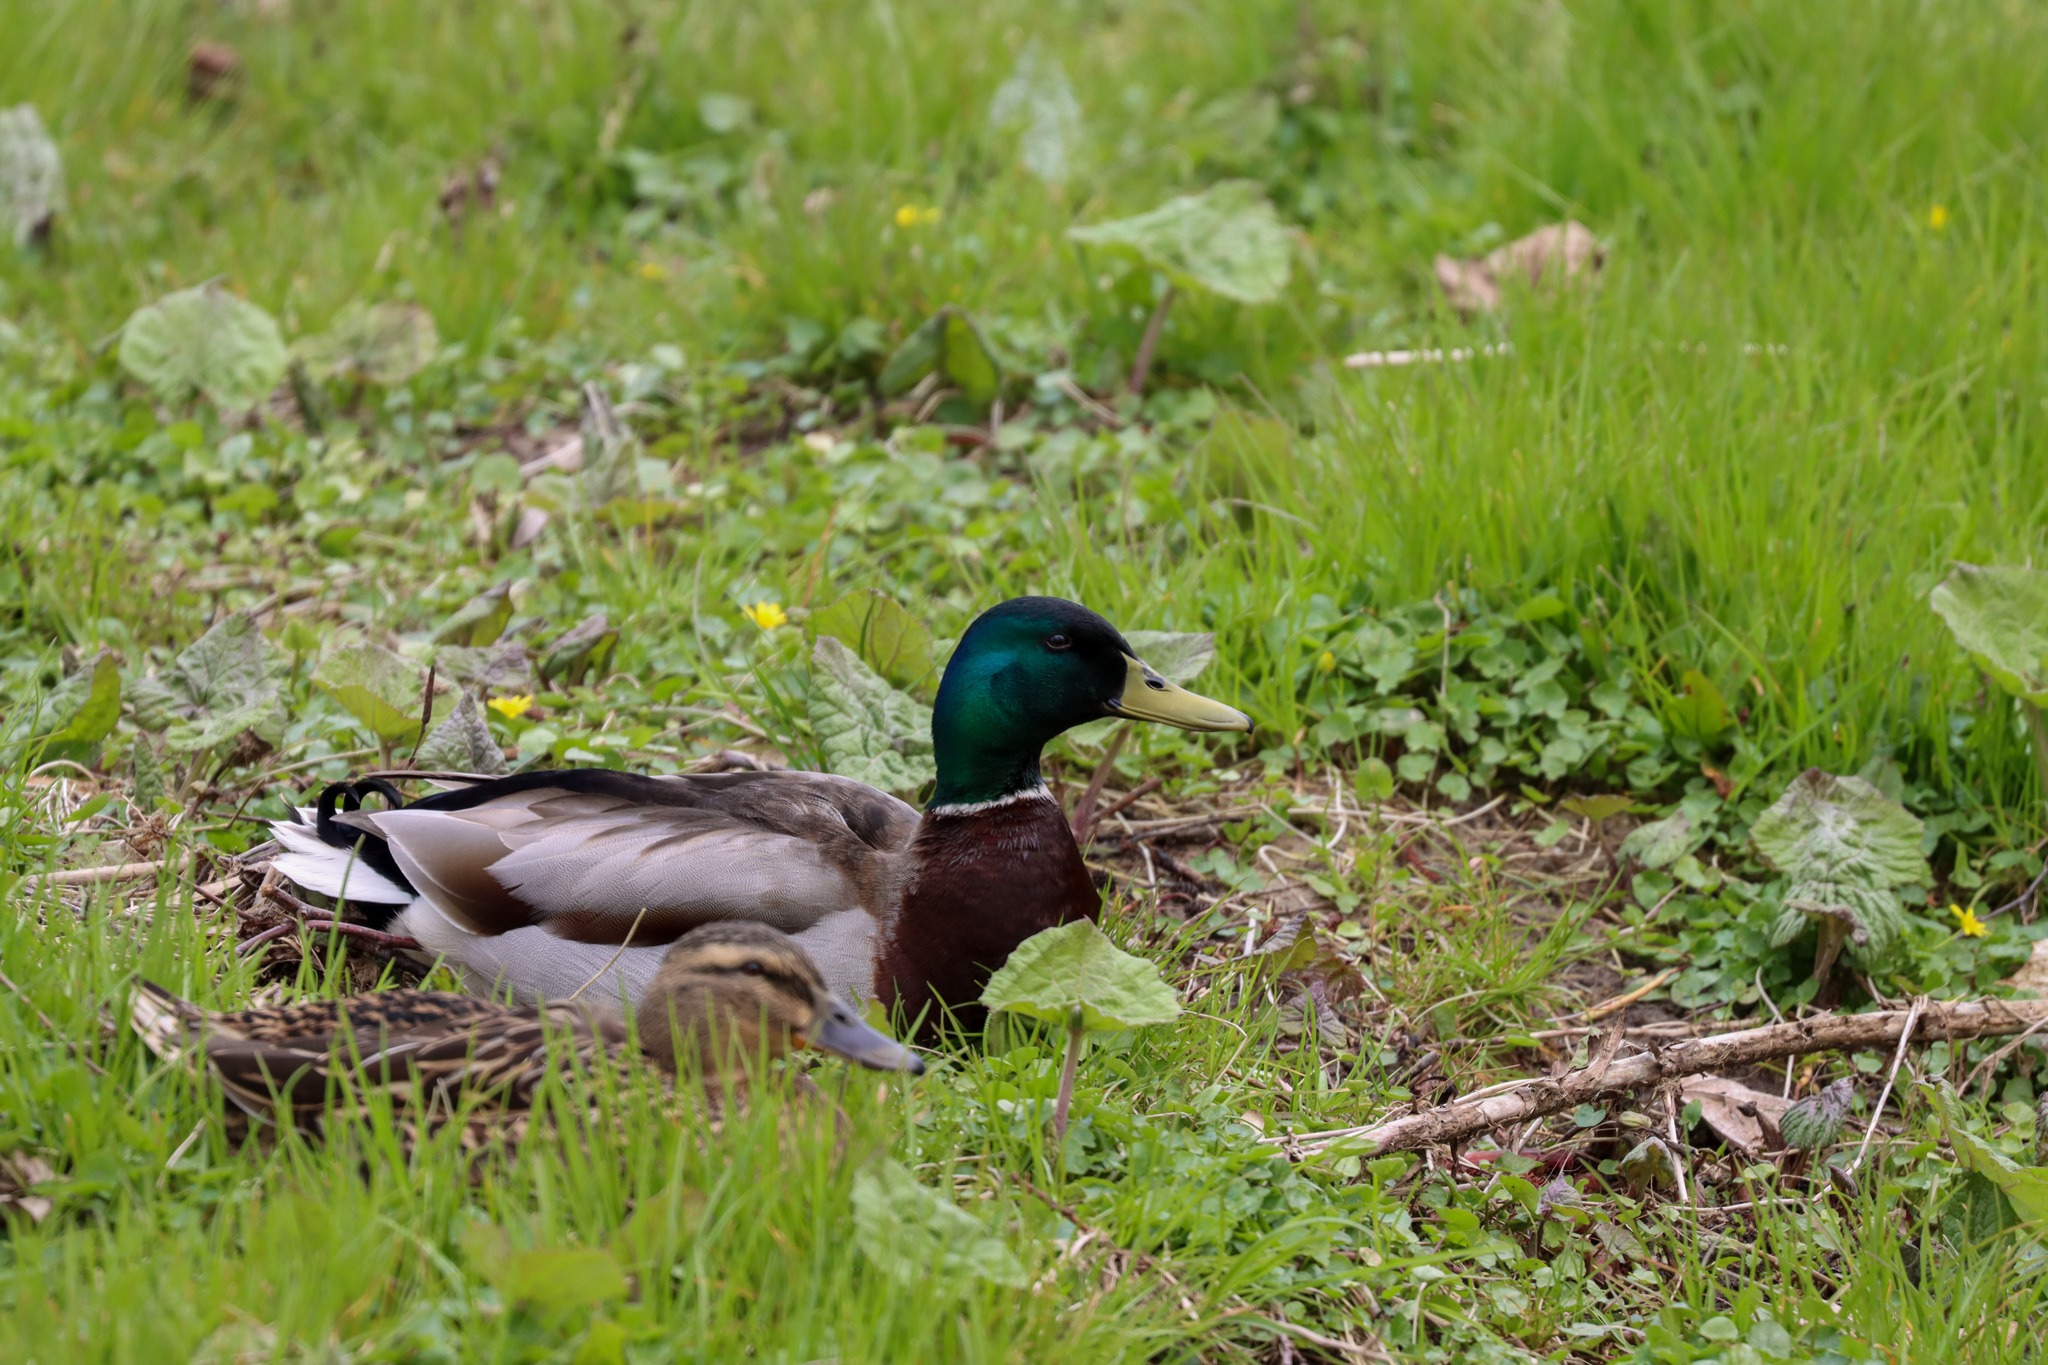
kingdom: Animalia
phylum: Chordata
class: Aves
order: Anseriformes
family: Anatidae
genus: Anas
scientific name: Anas platyrhynchos
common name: Gråand
